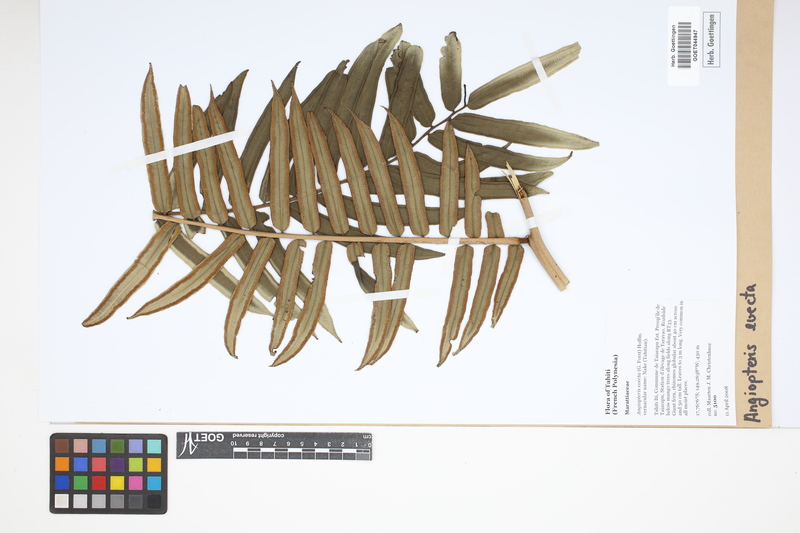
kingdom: Plantae
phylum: Tracheophyta
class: Polypodiopsida
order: Marattiales
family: Marattiaceae
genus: Angiopteris
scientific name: Angiopteris evecta
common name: Mule's-foot fern
